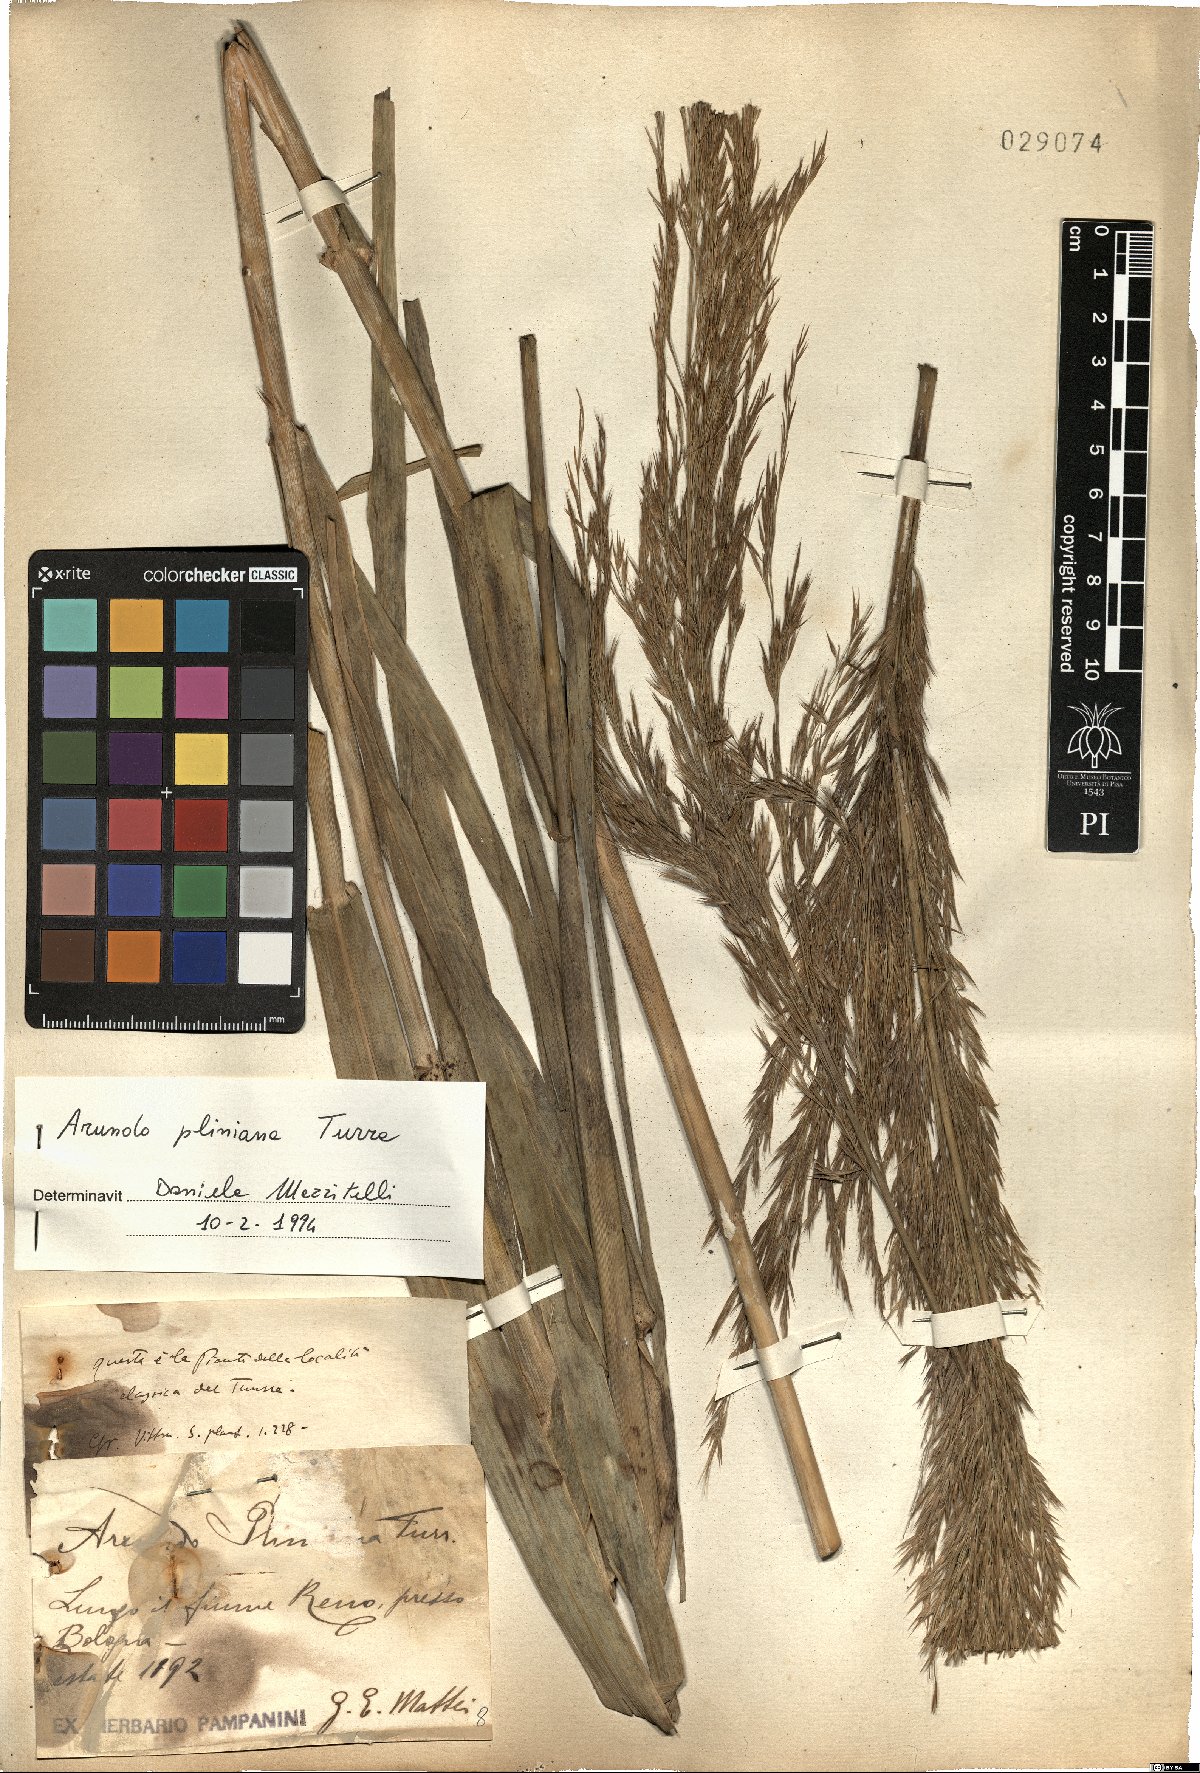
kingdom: Plantae
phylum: Tracheophyta
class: Liliopsida
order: Poales
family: Poaceae
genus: Arundo
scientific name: Arundo plinii
